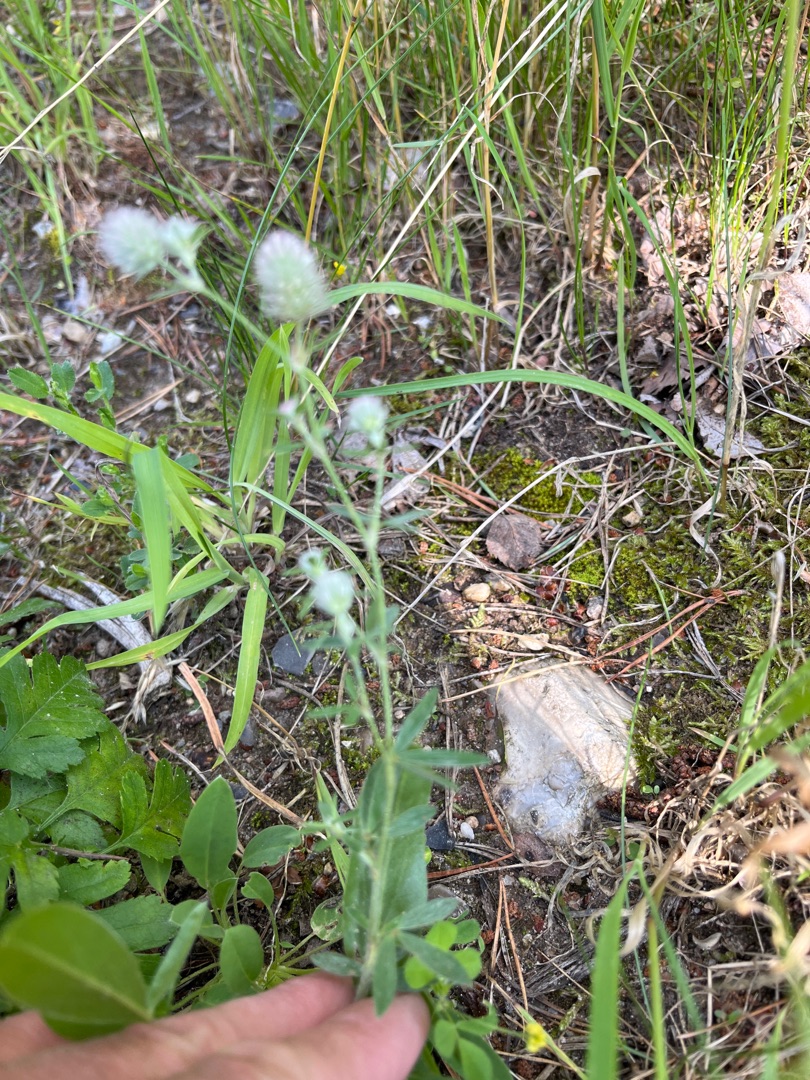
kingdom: Plantae
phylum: Tracheophyta
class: Magnoliopsida
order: Fabales
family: Fabaceae
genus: Trifolium
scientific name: Trifolium arvense
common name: Hare-kløver
